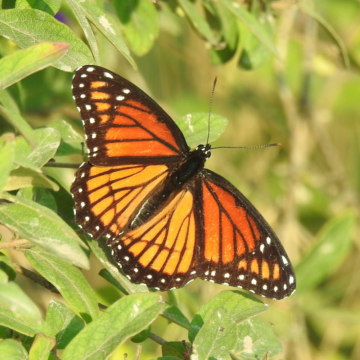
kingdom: Animalia
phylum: Arthropoda
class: Insecta
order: Lepidoptera
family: Nymphalidae
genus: Limenitis
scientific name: Limenitis archippus
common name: Viceroy
